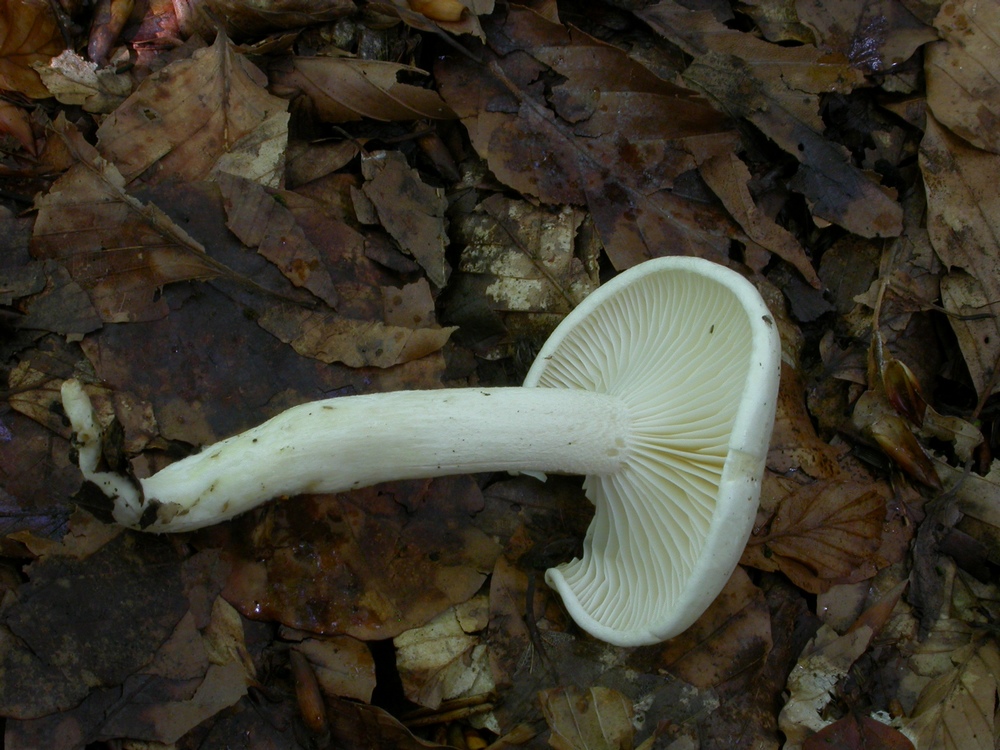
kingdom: Fungi
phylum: Basidiomycota
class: Agaricomycetes
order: Agaricales
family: Hygrophoraceae
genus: Hygrophorus
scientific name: Hygrophorus eburneus
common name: elfenbens-sneglehat
